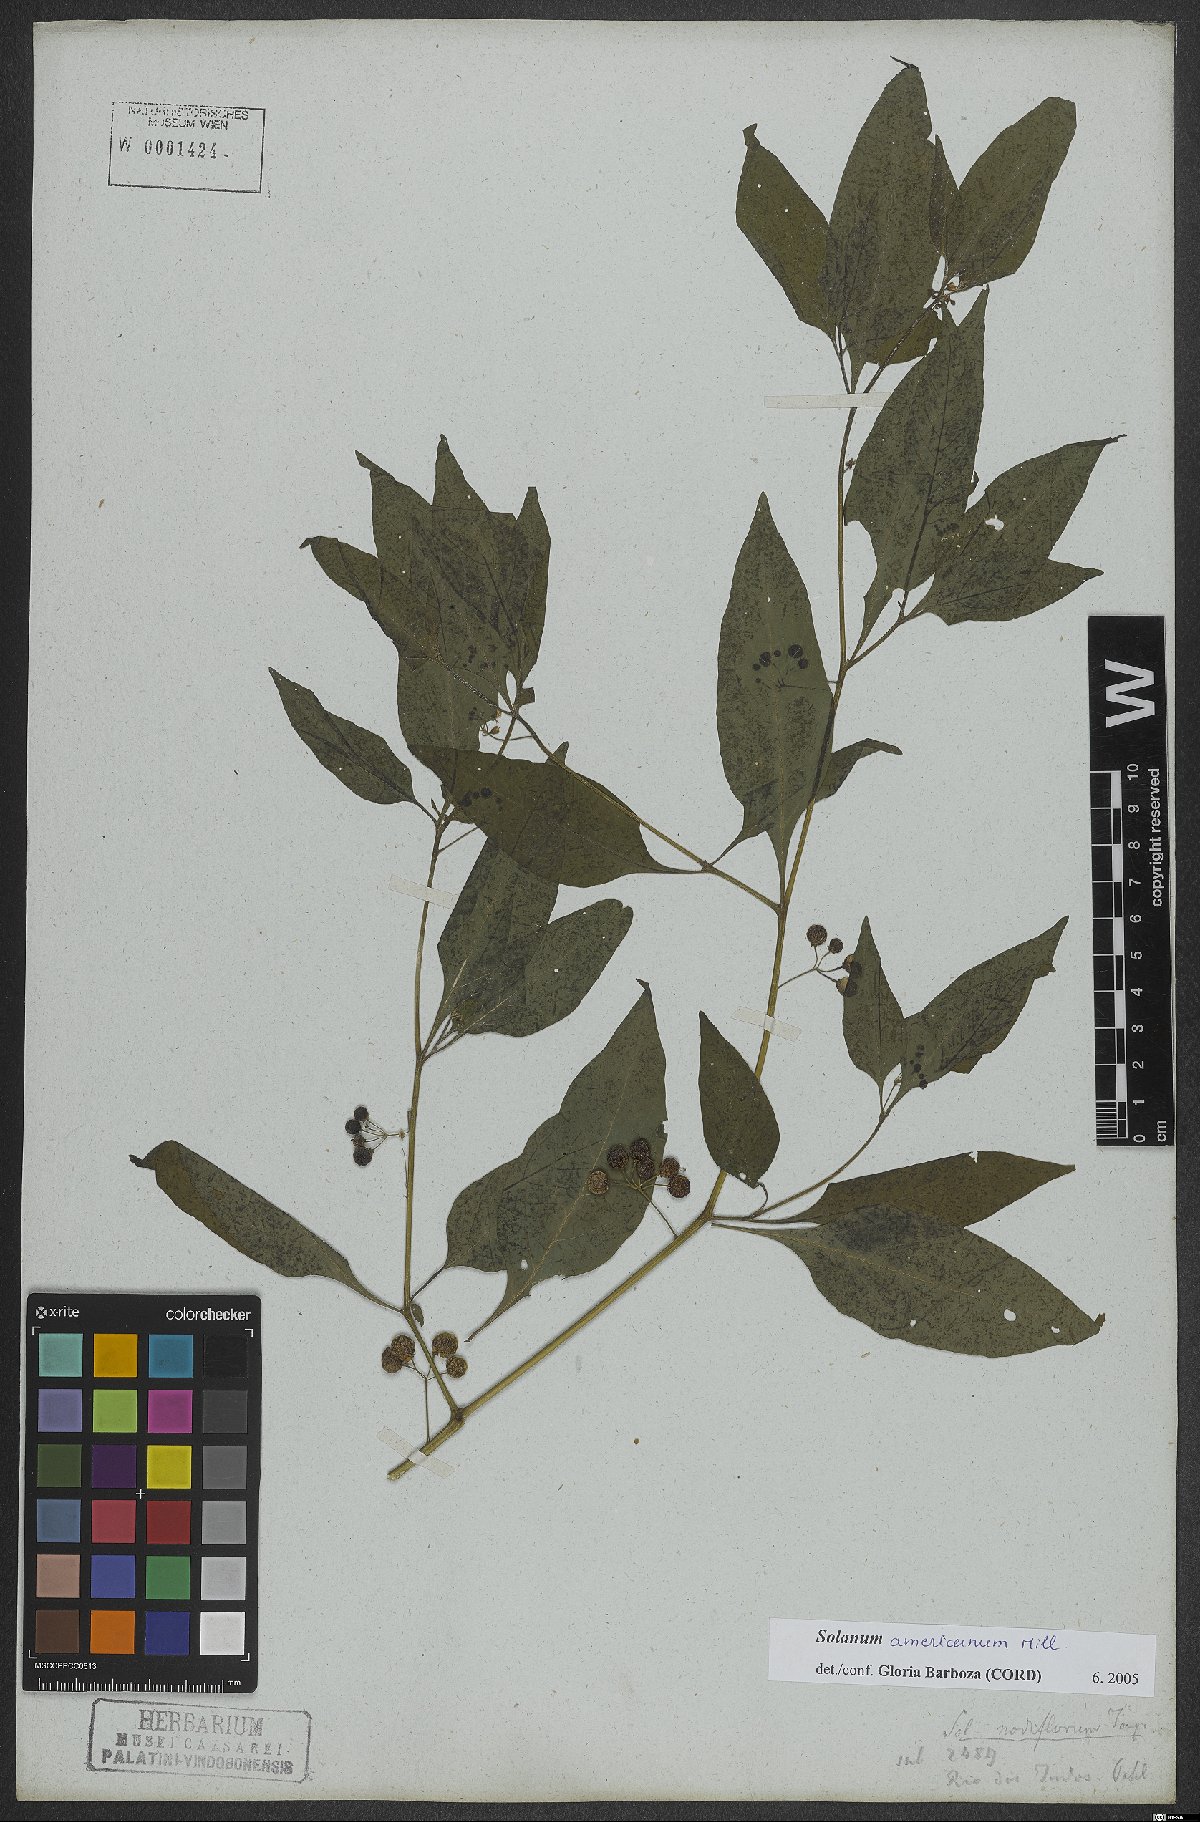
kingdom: Plantae
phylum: Tracheophyta
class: Magnoliopsida
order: Solanales
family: Solanaceae
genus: Solanum
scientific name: Solanum americanum
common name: American black nightshade
